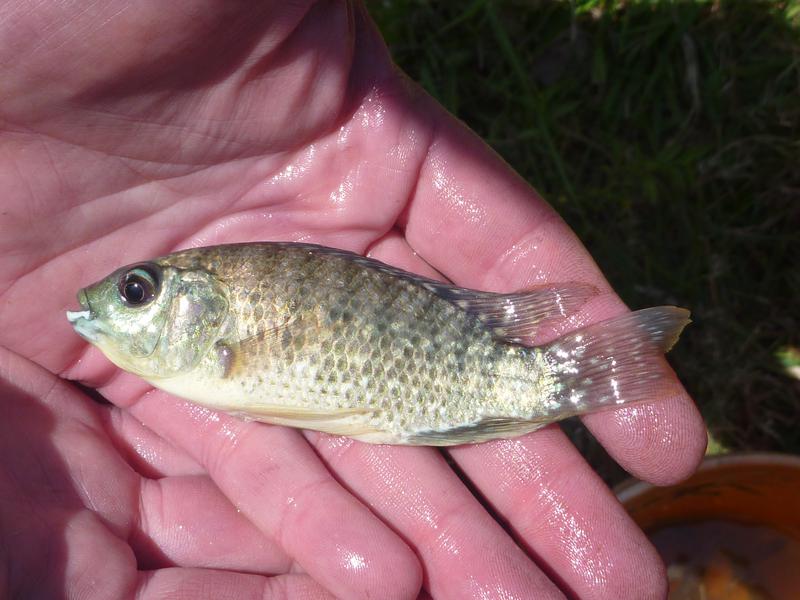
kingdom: Animalia
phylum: Chordata
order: Perciformes
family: Cichlidae
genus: Oreochromis
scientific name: Oreochromis leucostictus
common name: Blue spotted tilapia
